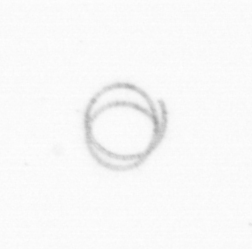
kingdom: Chromista
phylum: Ochrophyta
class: Bacillariophyceae
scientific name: Bacillariophyceae
